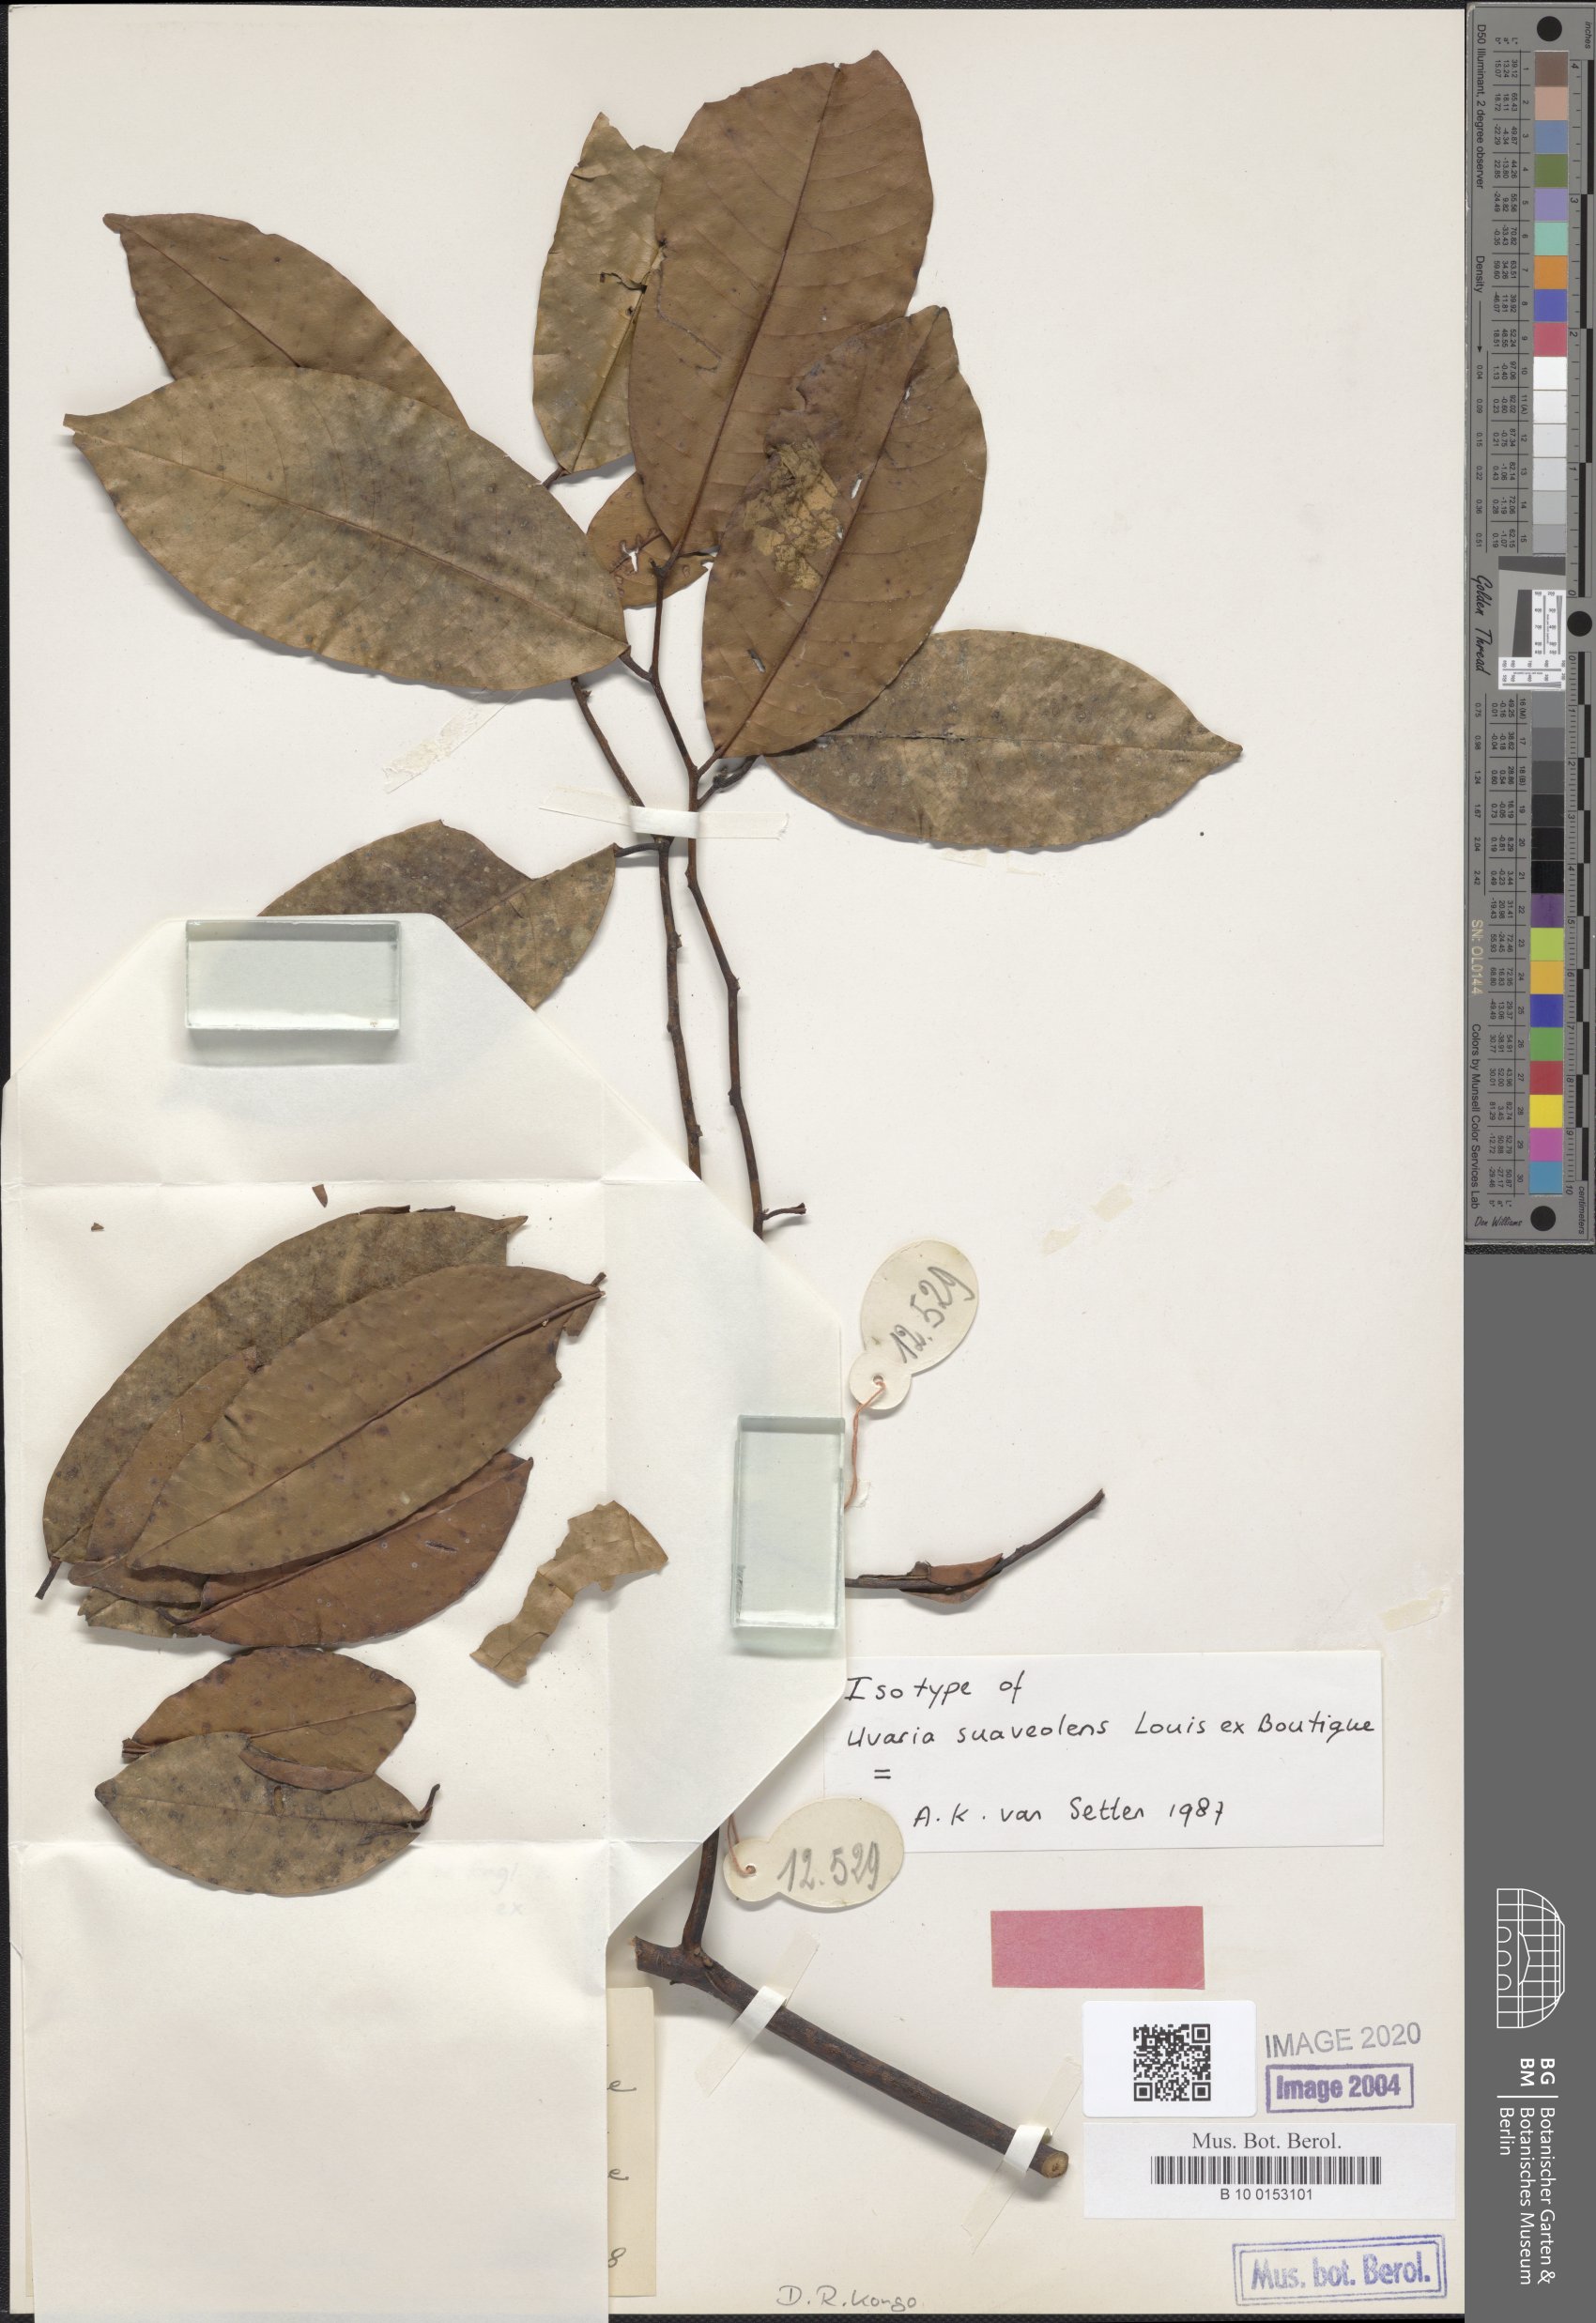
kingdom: Plantae
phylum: Tracheophyta
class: Magnoliopsida
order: Magnoliales
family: Annonaceae
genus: Uvaria
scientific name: Uvaria muricata
